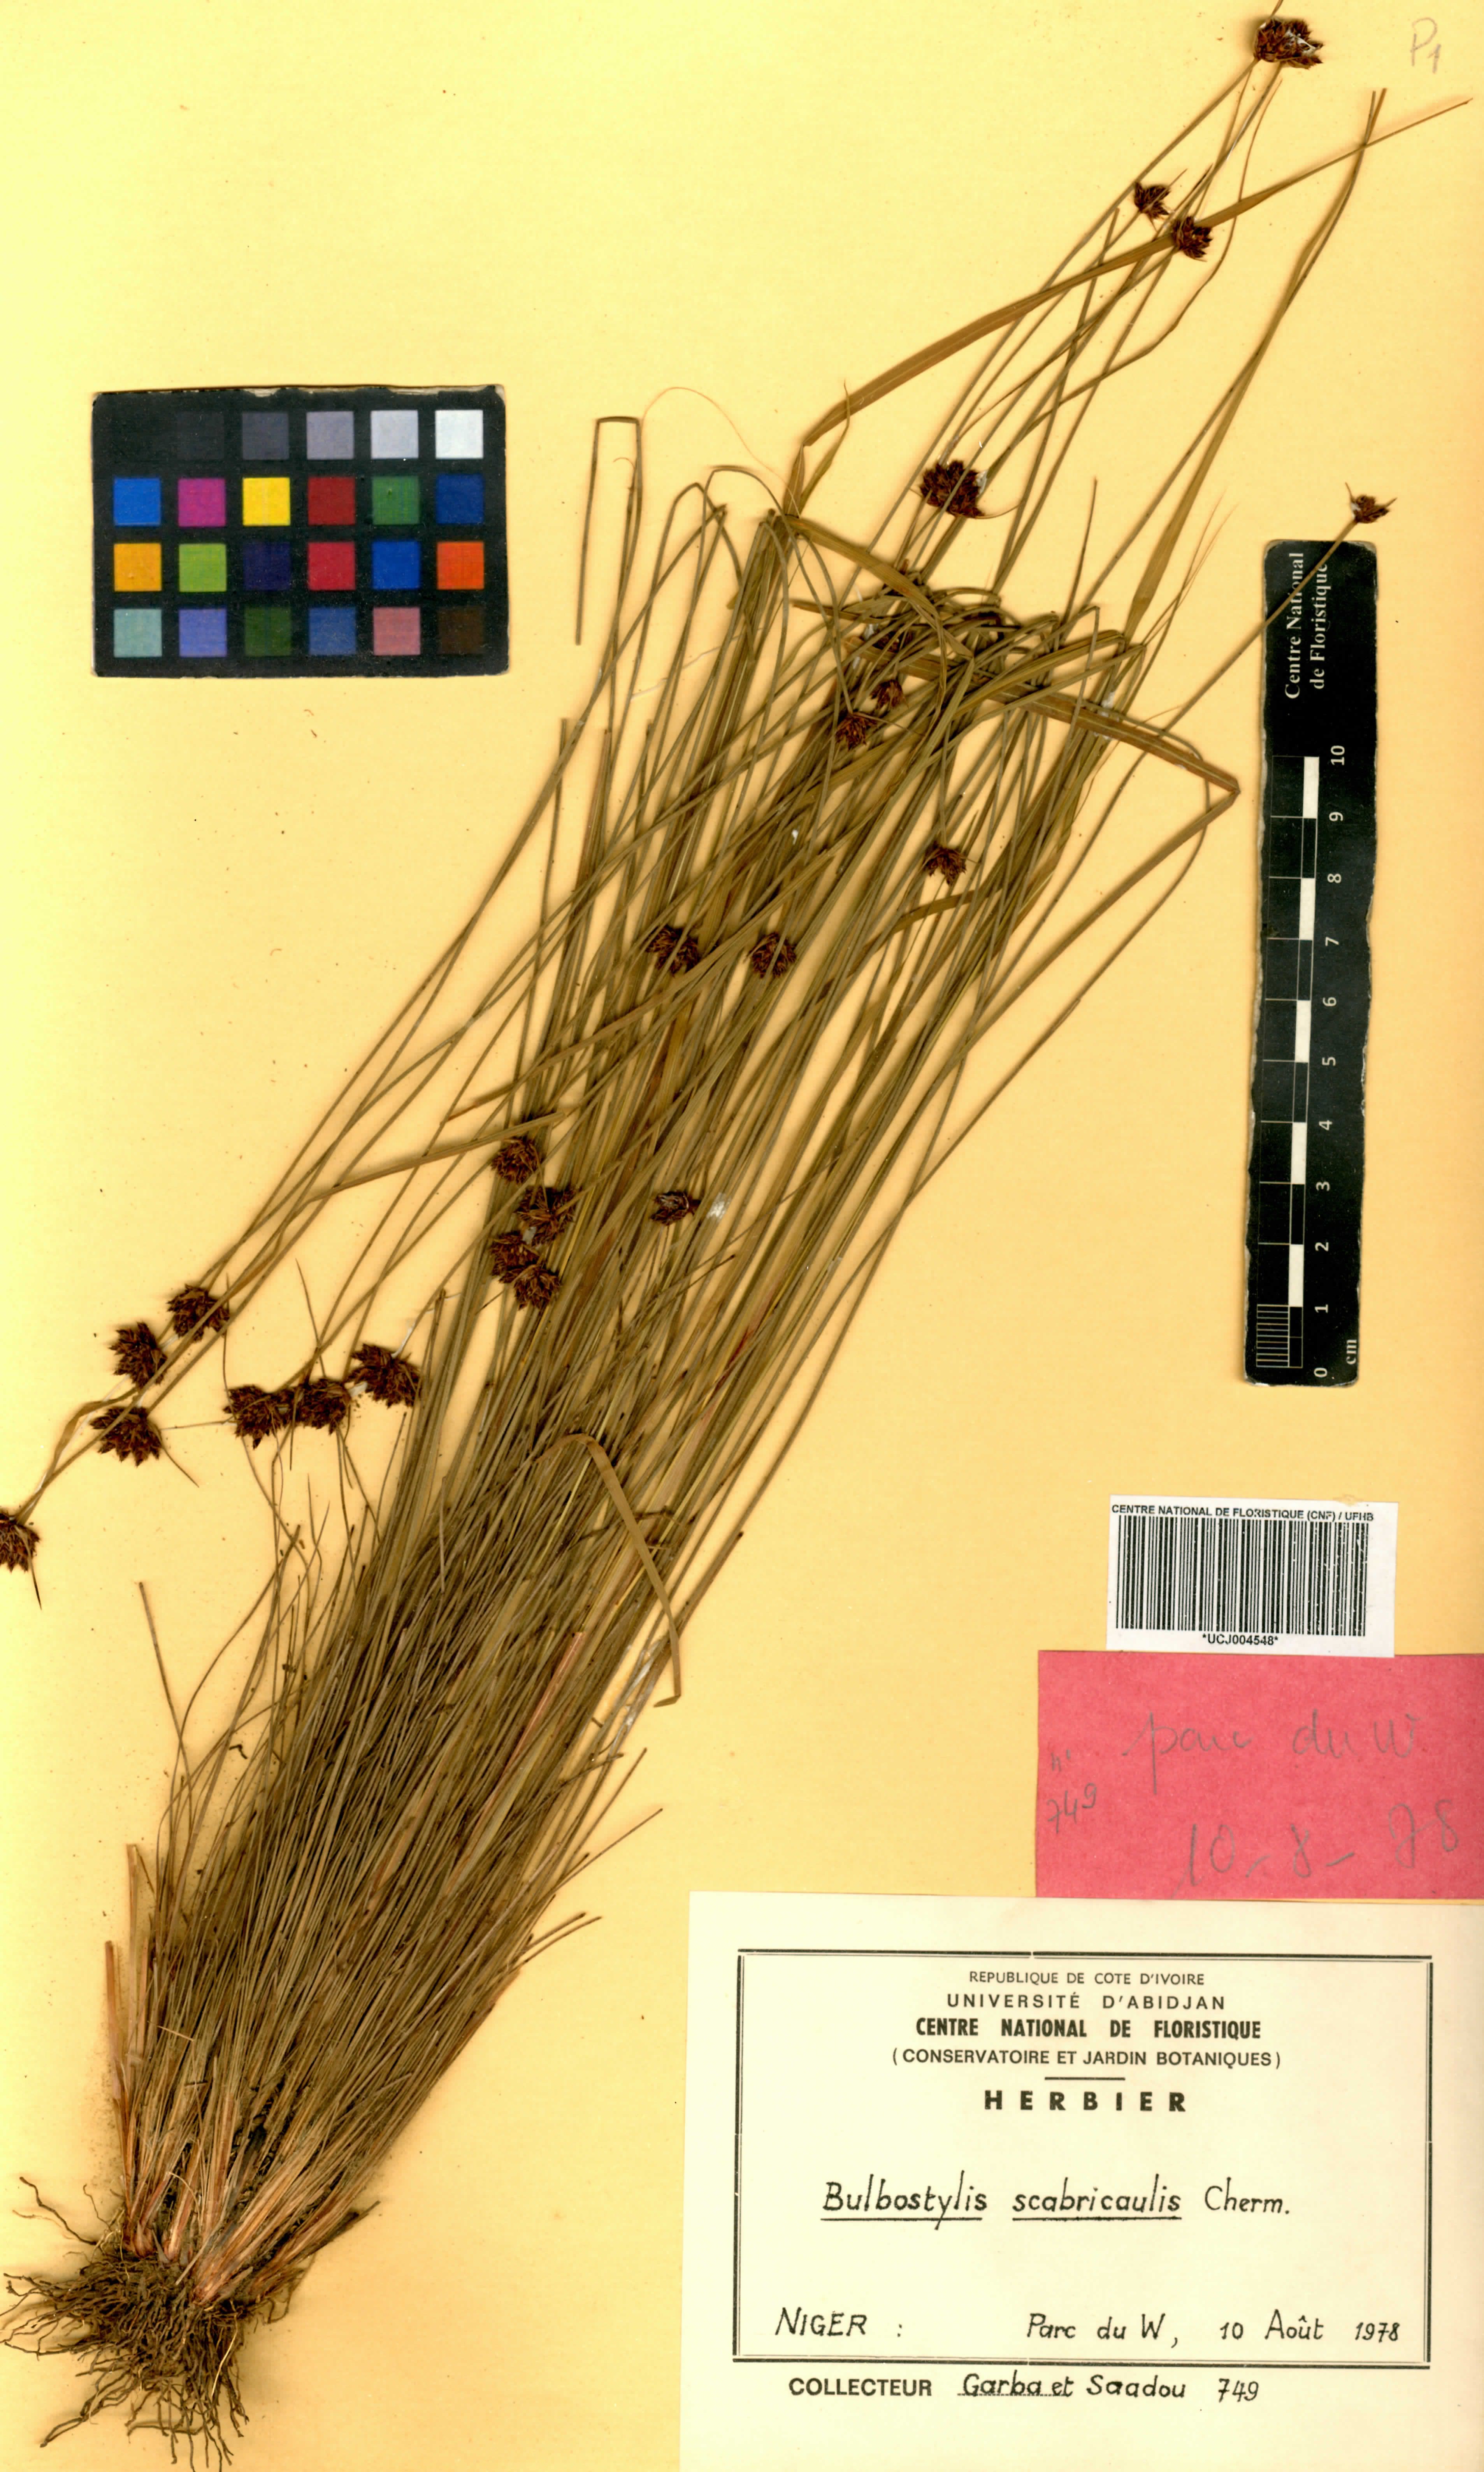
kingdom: Plantae
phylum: Tracheophyta
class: Liliopsida
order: Poales
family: Cyperaceae
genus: Bulbostylis
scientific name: Bulbostylis filamentosa
